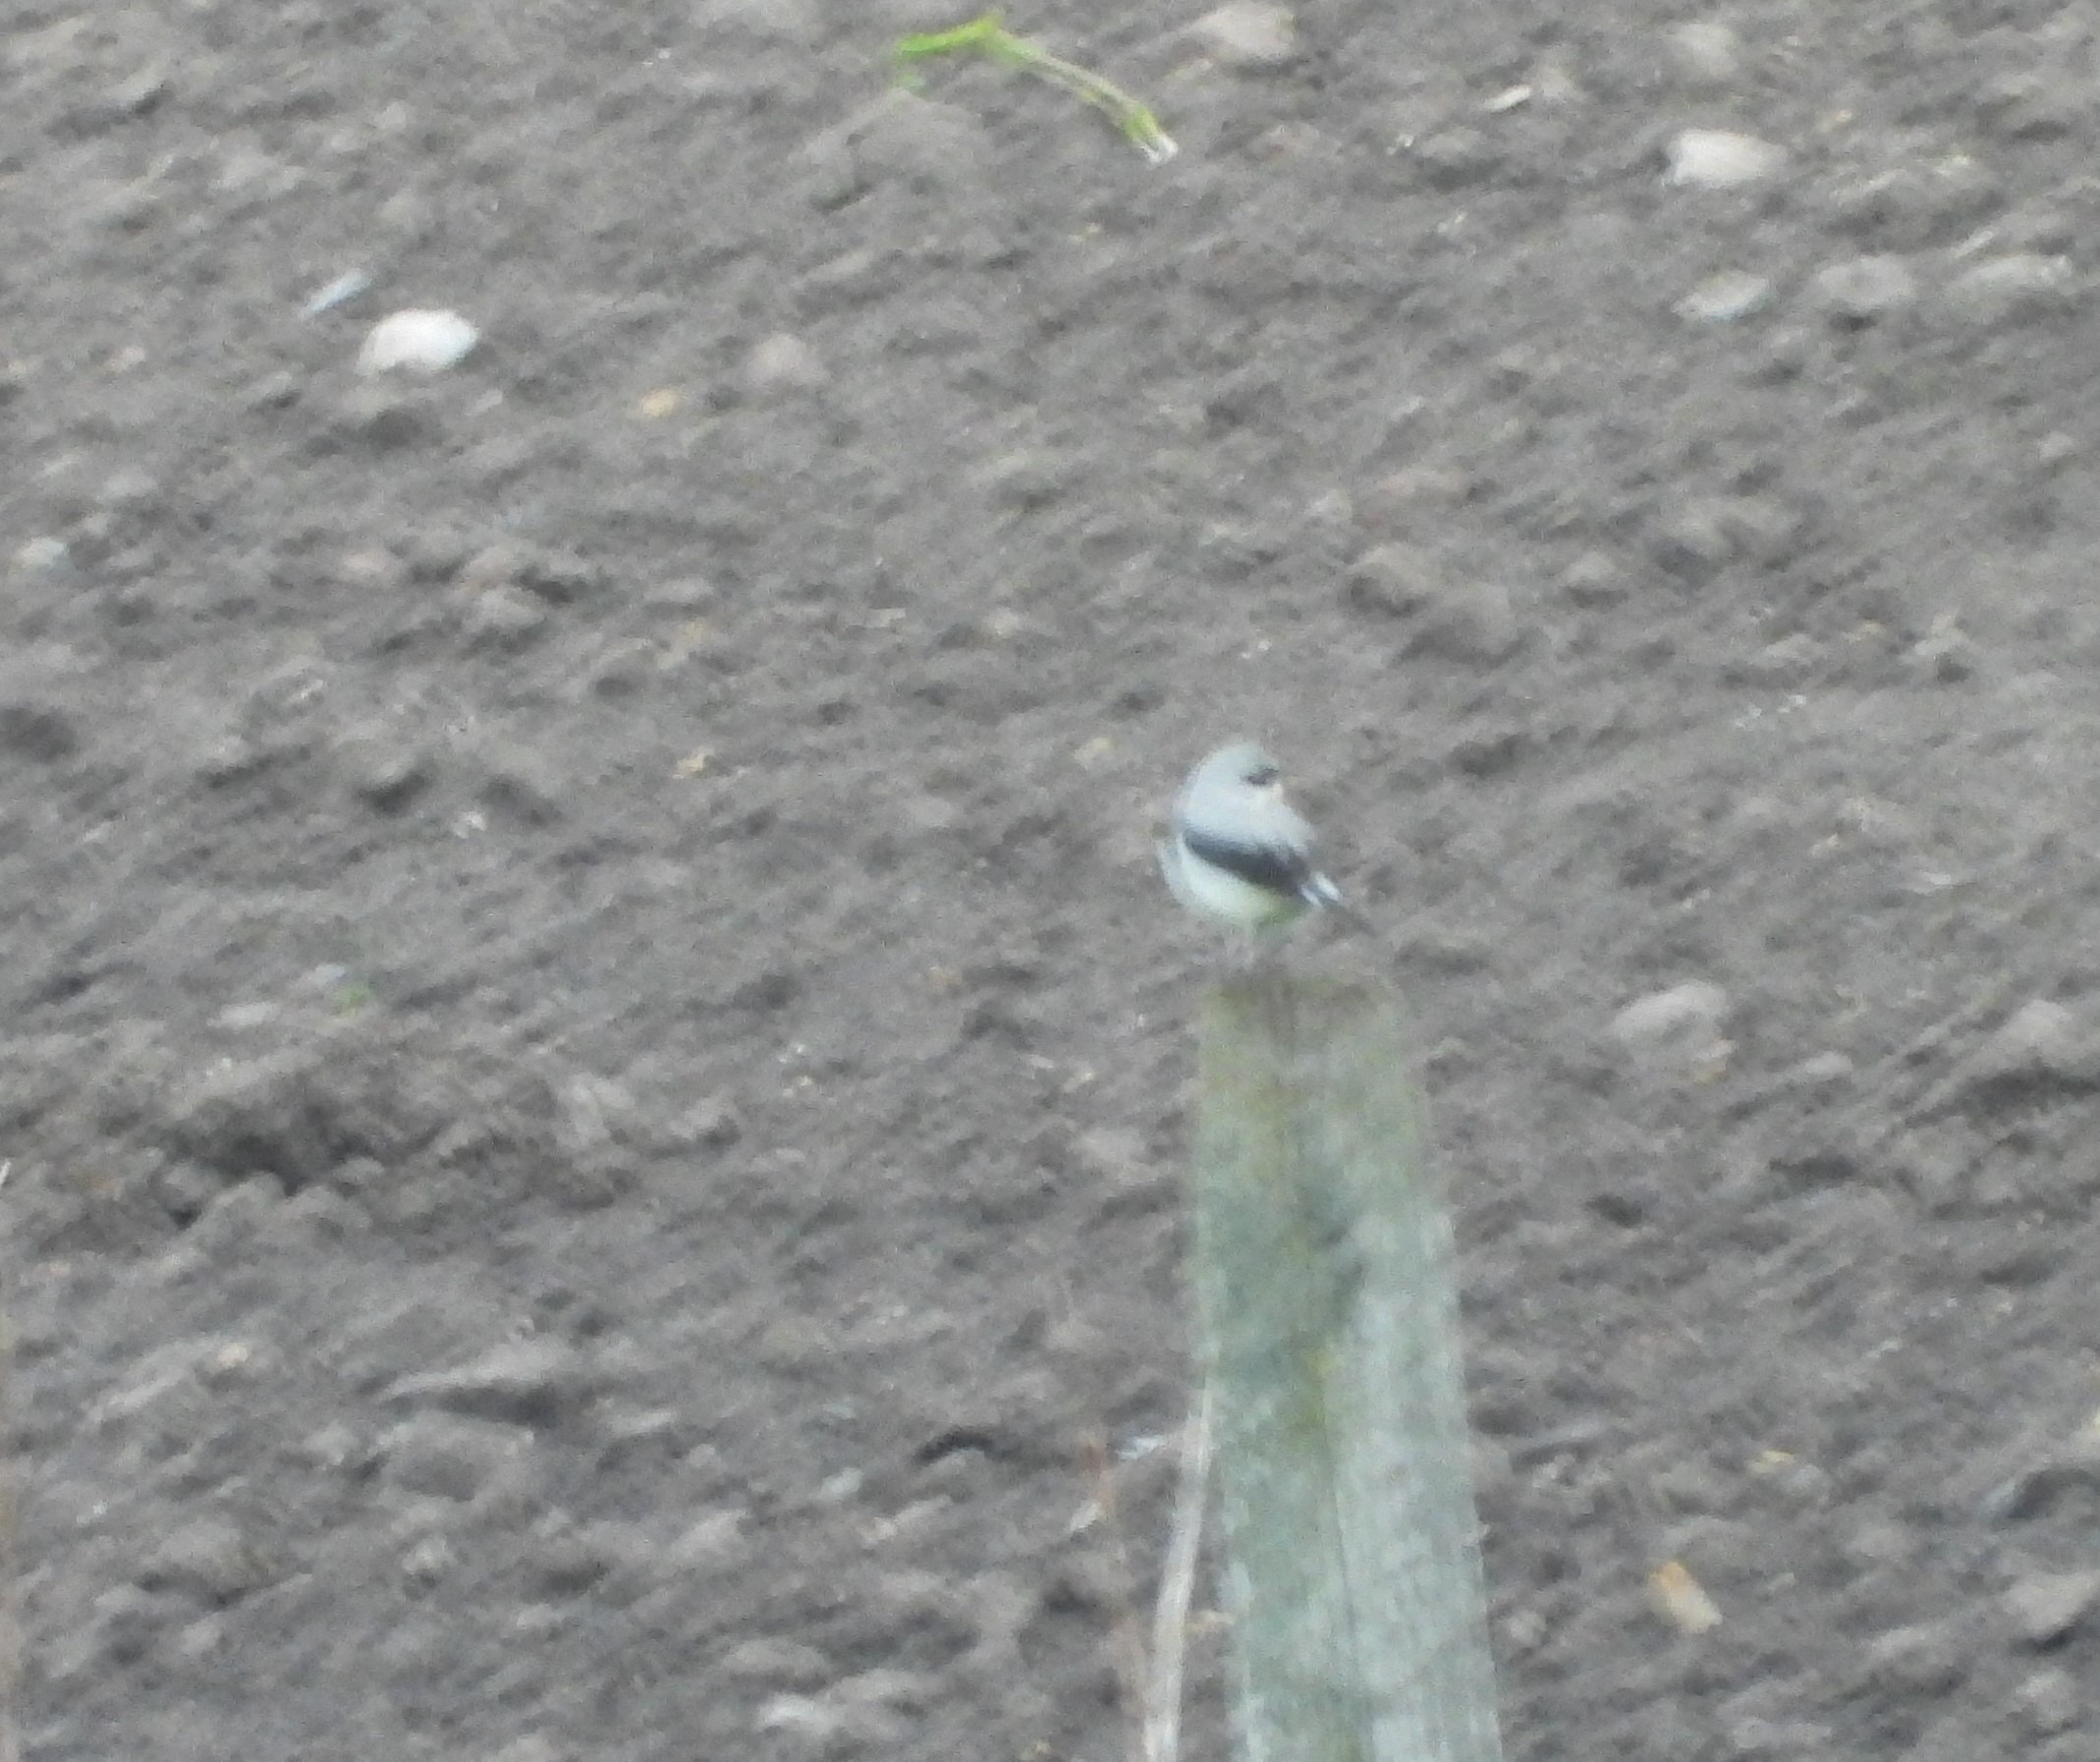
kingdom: Animalia
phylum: Chordata
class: Aves
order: Passeriformes
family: Muscicapidae
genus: Oenanthe
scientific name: Oenanthe oenanthe
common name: Stenpikker
